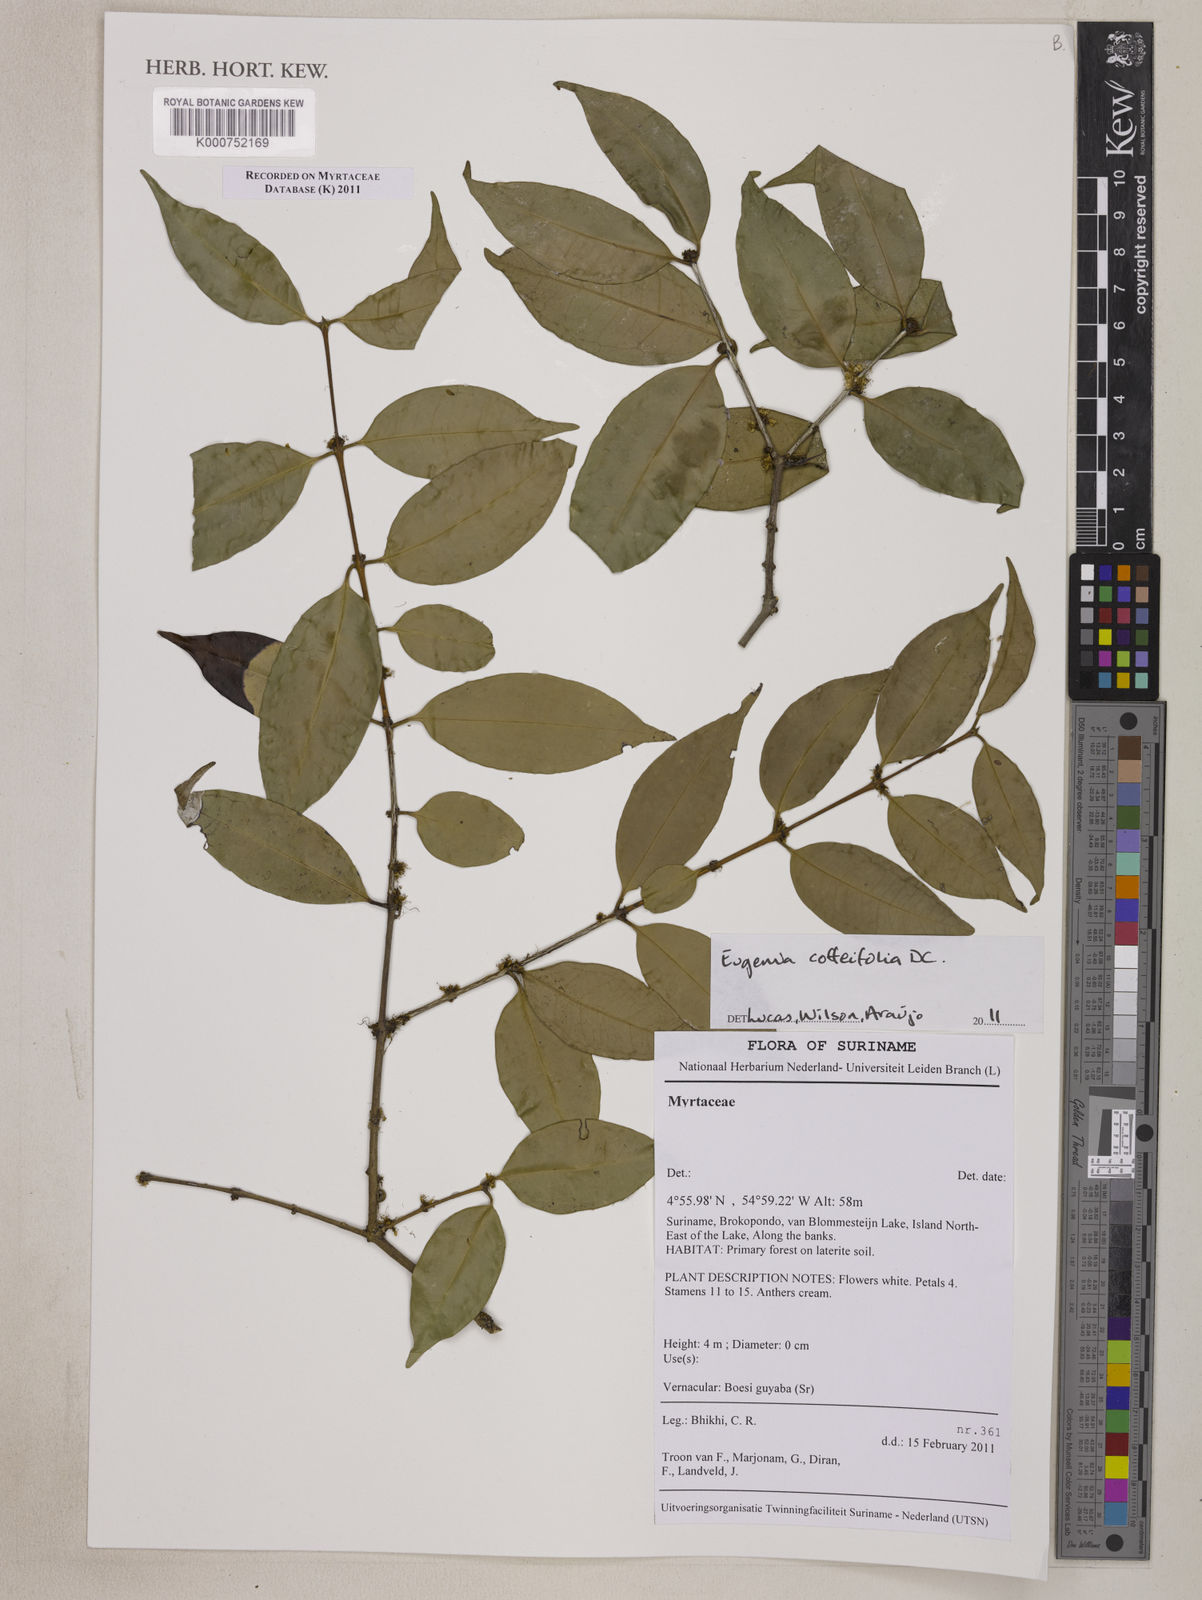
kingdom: Plantae
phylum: Tracheophyta
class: Magnoliopsida
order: Myrtales
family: Myrtaceae
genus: Eugenia
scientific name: Eugenia coffeifolia
